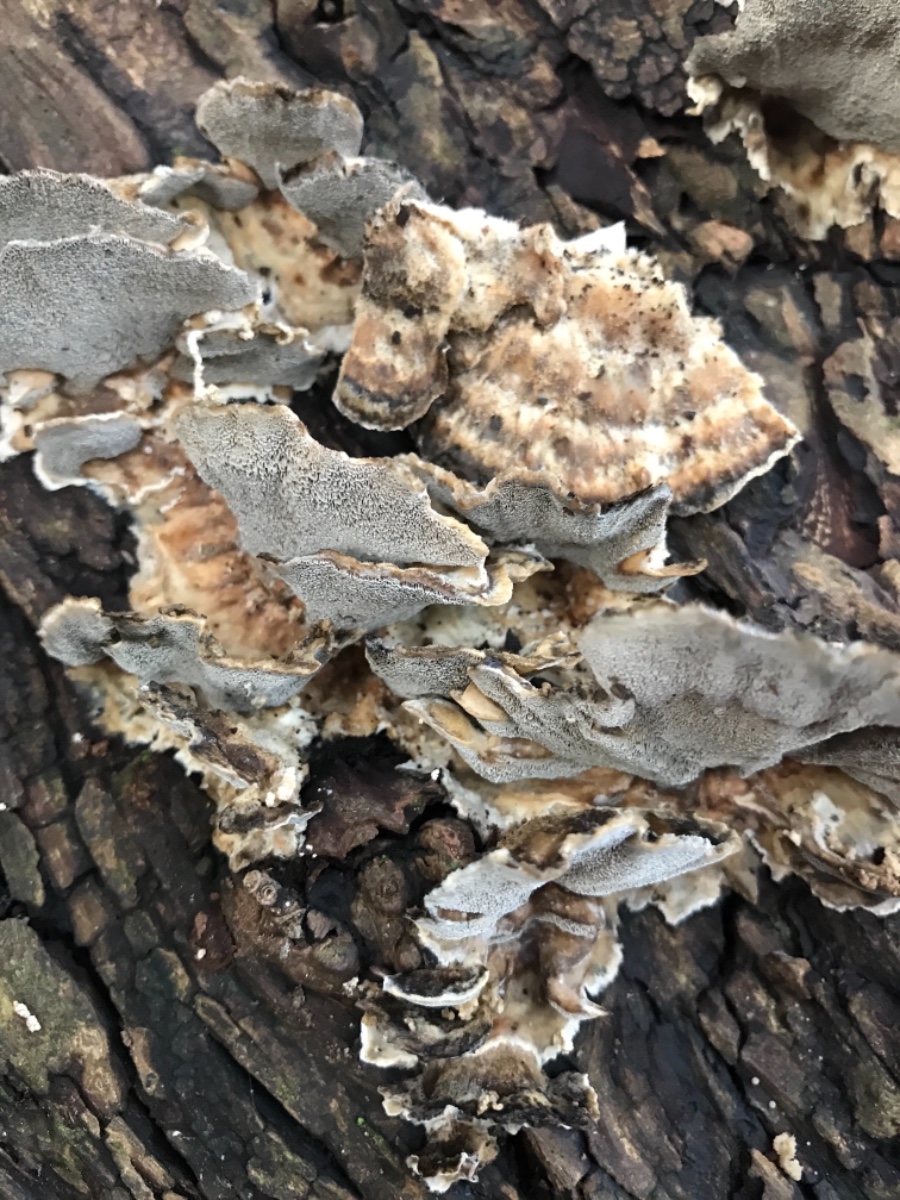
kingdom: Fungi
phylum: Basidiomycota
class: Agaricomycetes
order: Polyporales
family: Phanerochaetaceae
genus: Bjerkandera
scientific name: Bjerkandera adusta
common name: sveden sodporesvamp
